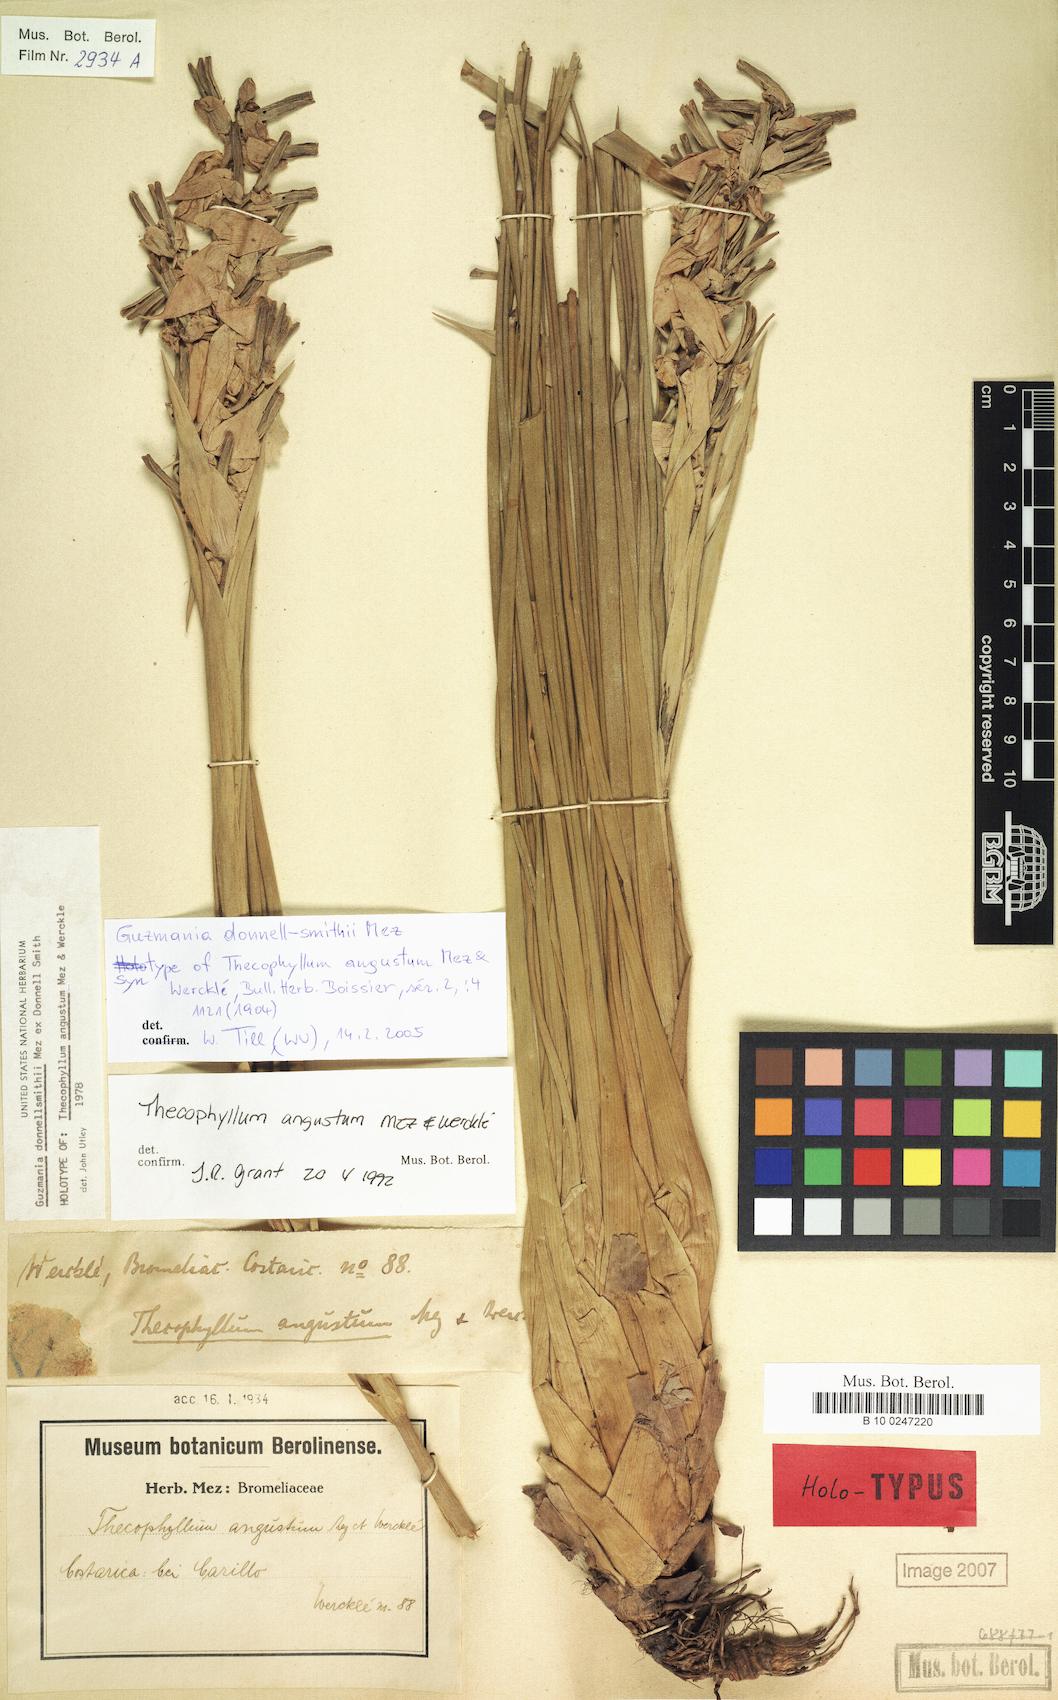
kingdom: Plantae
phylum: Tracheophyta
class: Liliopsida
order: Poales
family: Bromeliaceae
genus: Guzmania
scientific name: Guzmania donnellsmithii
